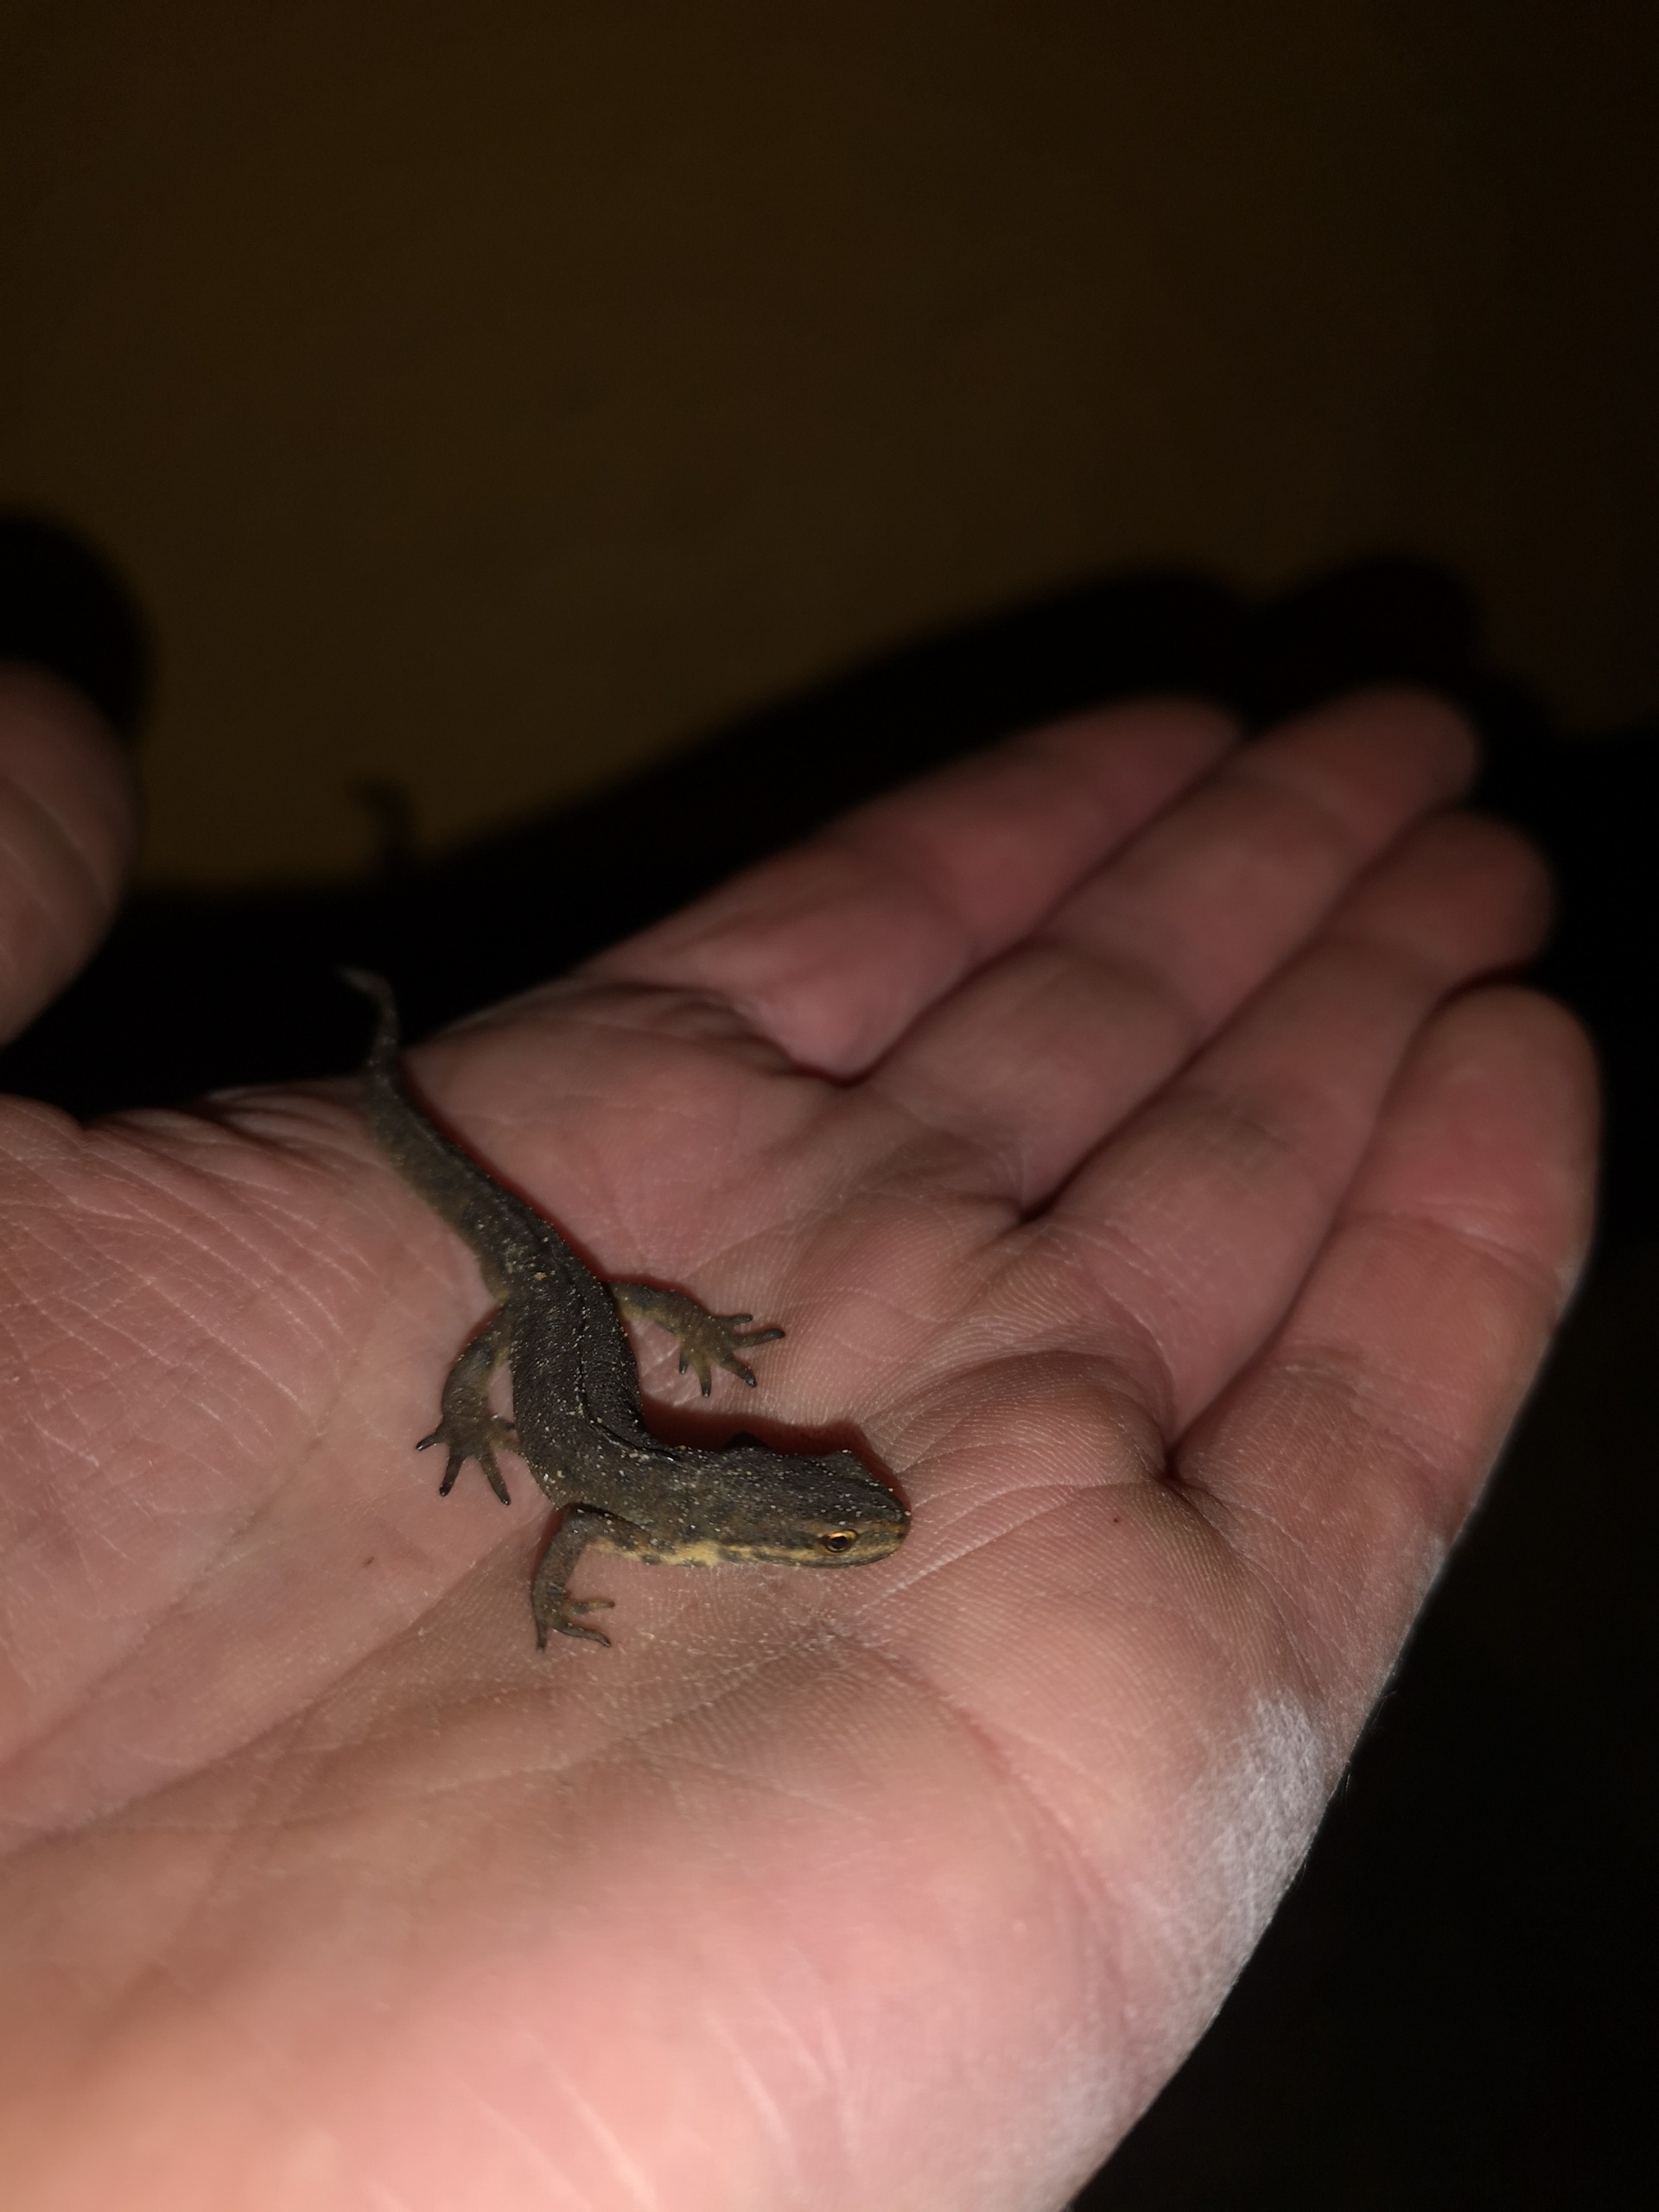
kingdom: Animalia
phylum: Chordata
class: Amphibia
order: Caudata
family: Salamandridae
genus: Lissotriton
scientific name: Lissotriton vulgaris
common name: Lille vandsalamander
